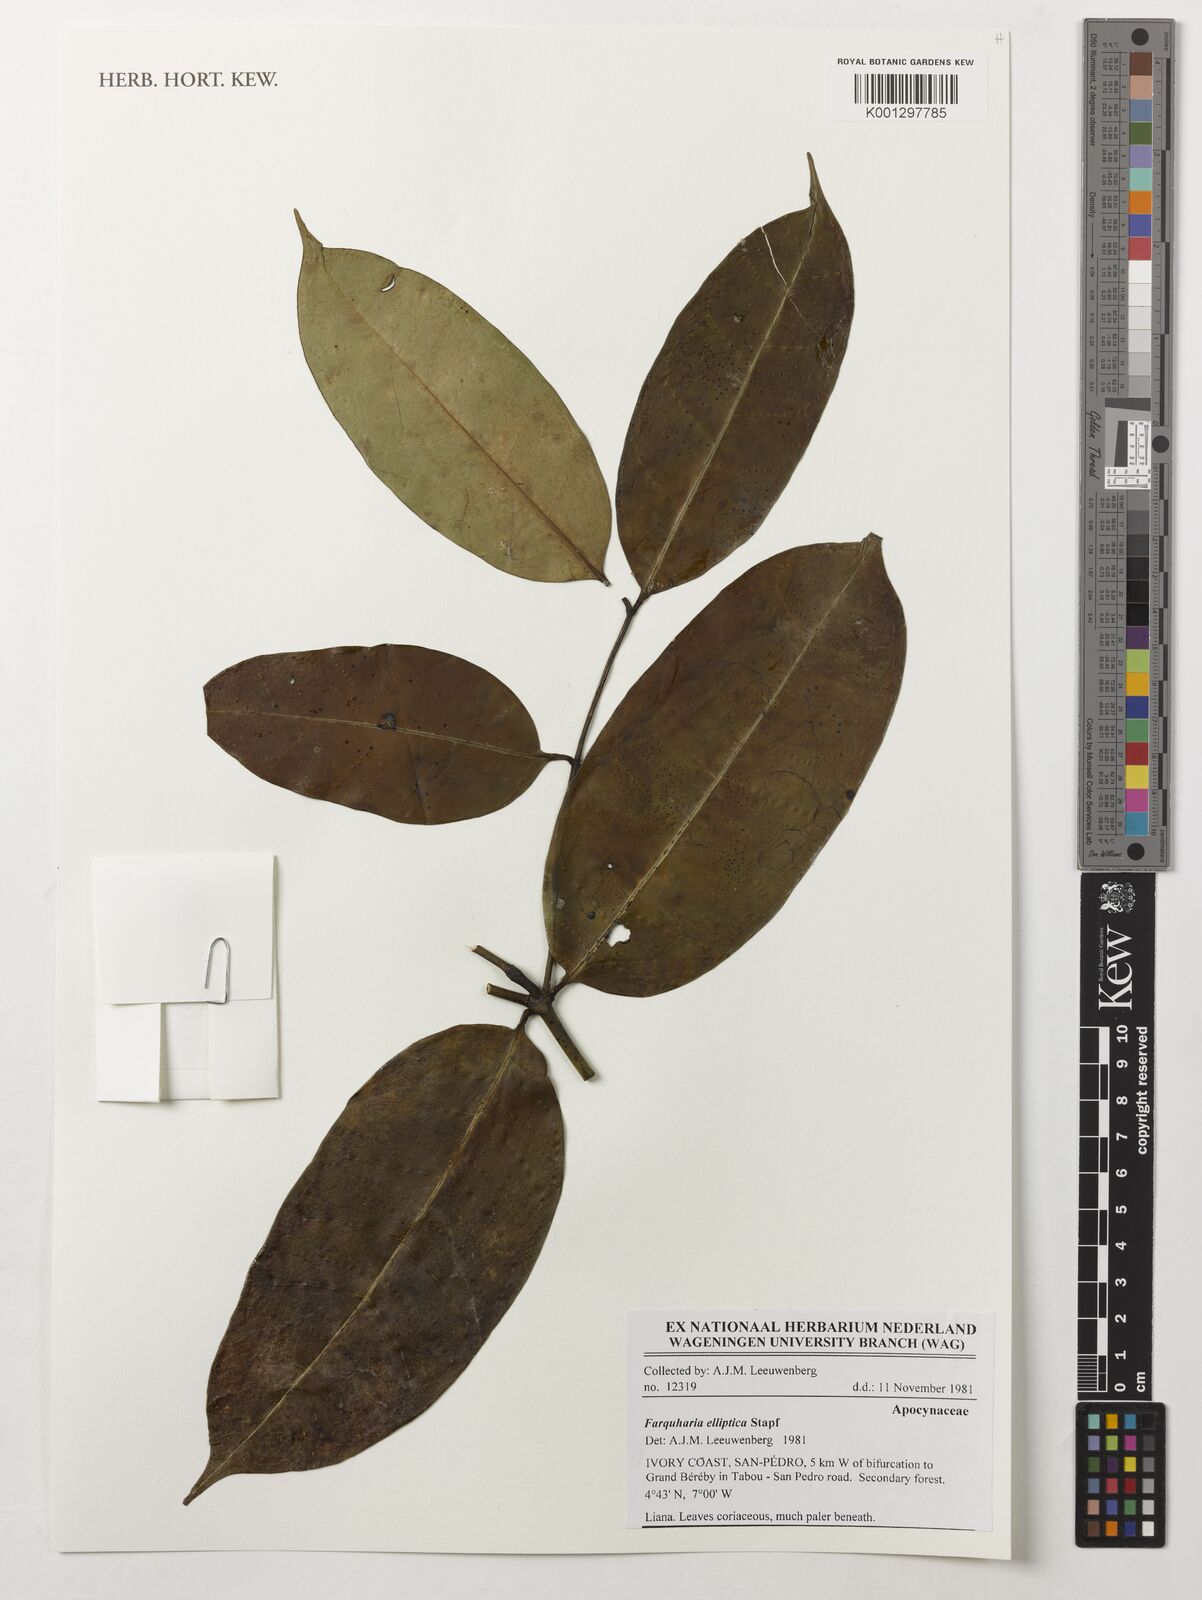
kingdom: Plantae
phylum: Tracheophyta
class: Magnoliopsida
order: Gentianales
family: Apocynaceae
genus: Farquharia
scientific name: Farquharia elliptica
